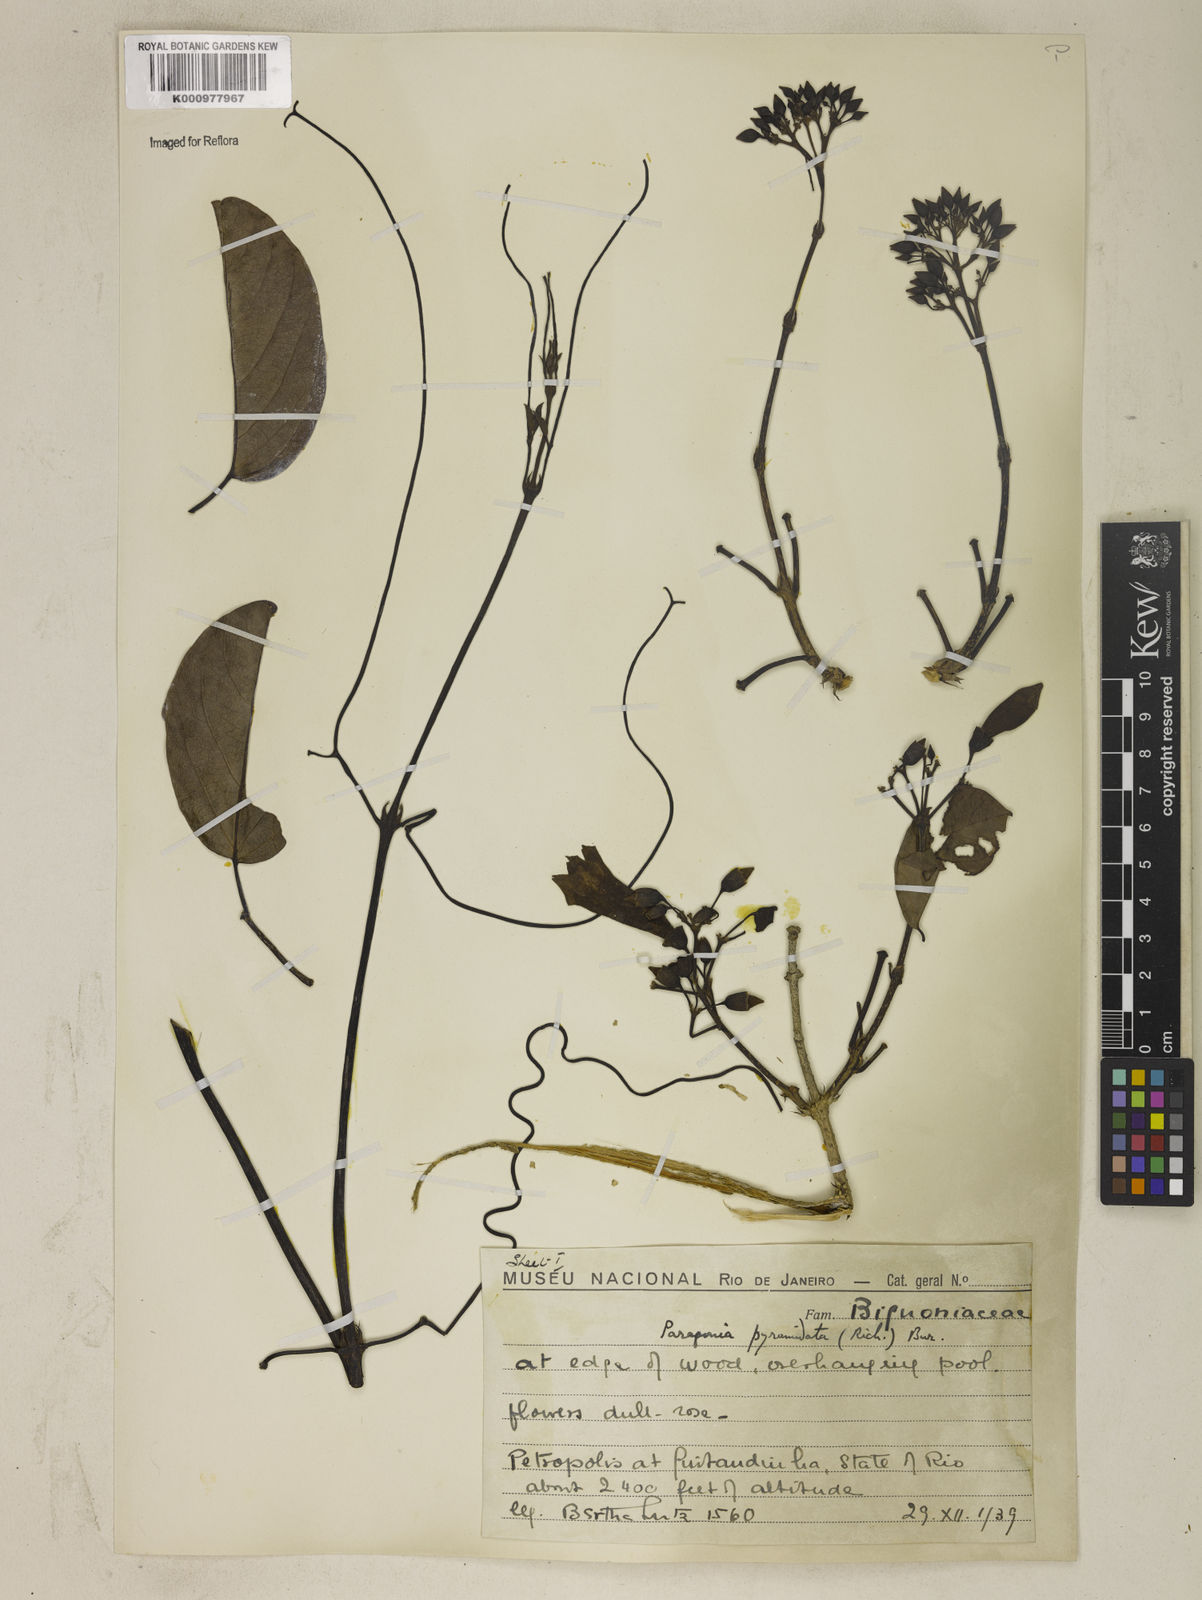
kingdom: Plantae
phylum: Tracheophyta
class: Magnoliopsida
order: Lamiales
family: Bignoniaceae
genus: Tanaecium
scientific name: Tanaecium pyramidatum
